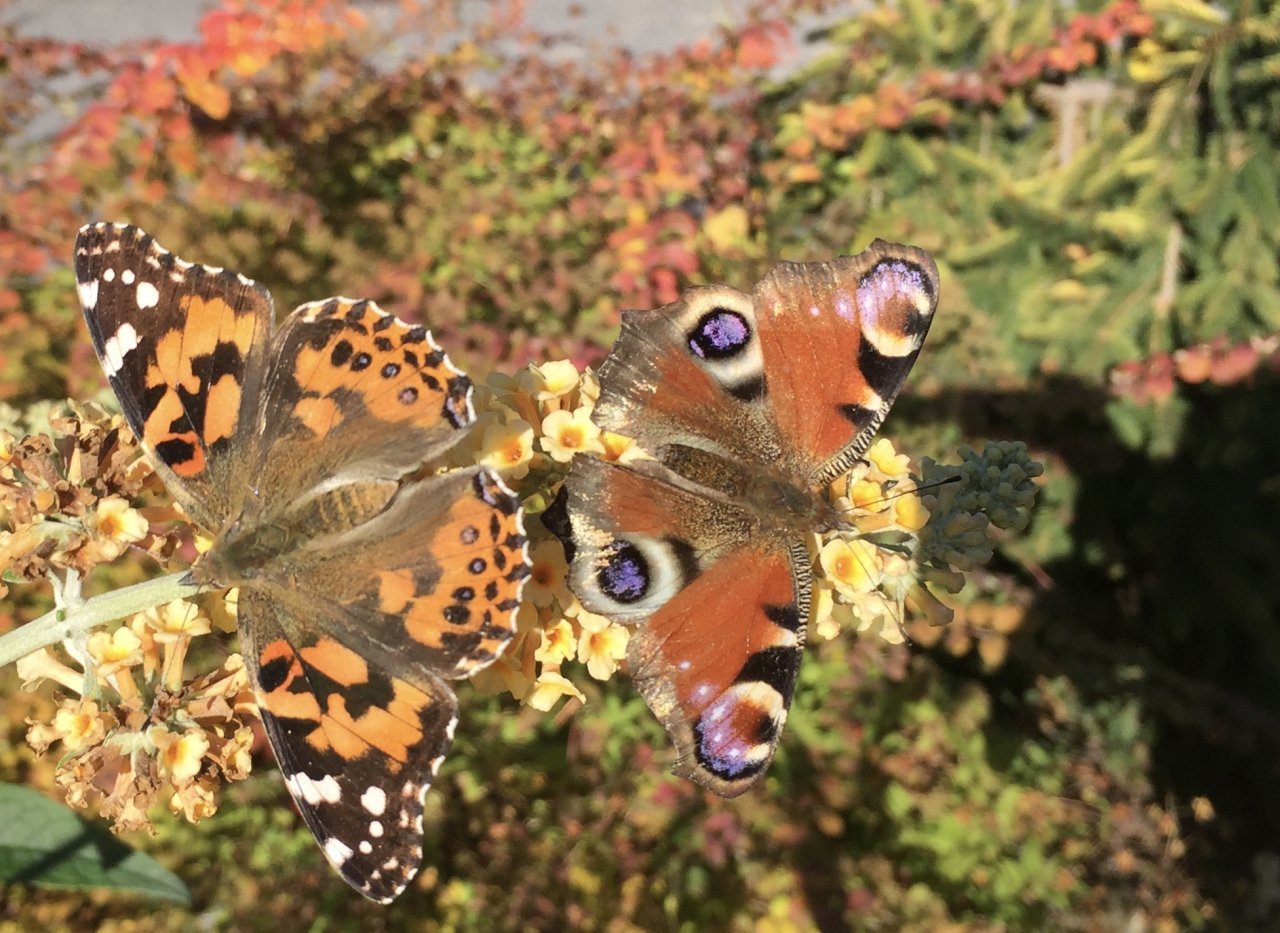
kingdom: Animalia
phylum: Arthropoda
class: Insecta
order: Lepidoptera
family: Nymphalidae
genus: Aglais
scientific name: Aglais io
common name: European Peacock
